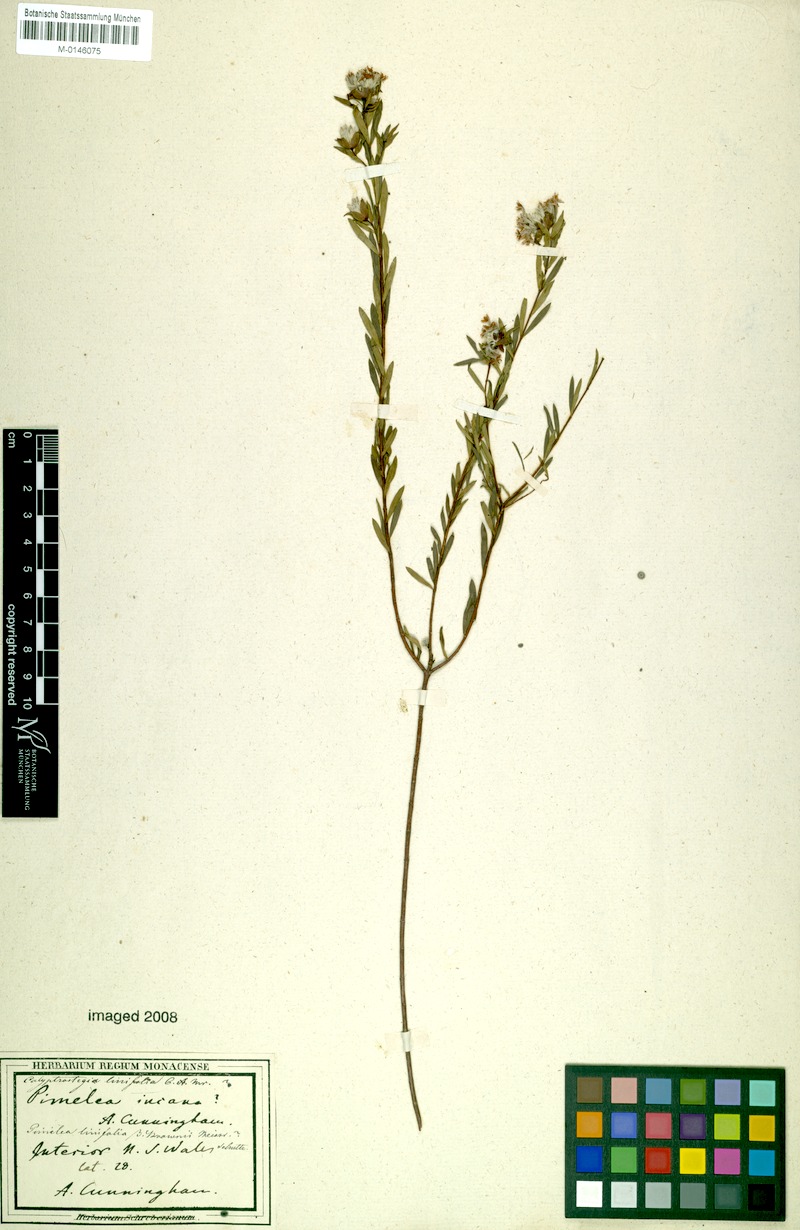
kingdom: Plantae
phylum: Tracheophyta
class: Magnoliopsida
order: Malvales
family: Thymelaeaceae
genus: Pimelea
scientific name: Pimelea linifolia
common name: Queen-of-the-bush
